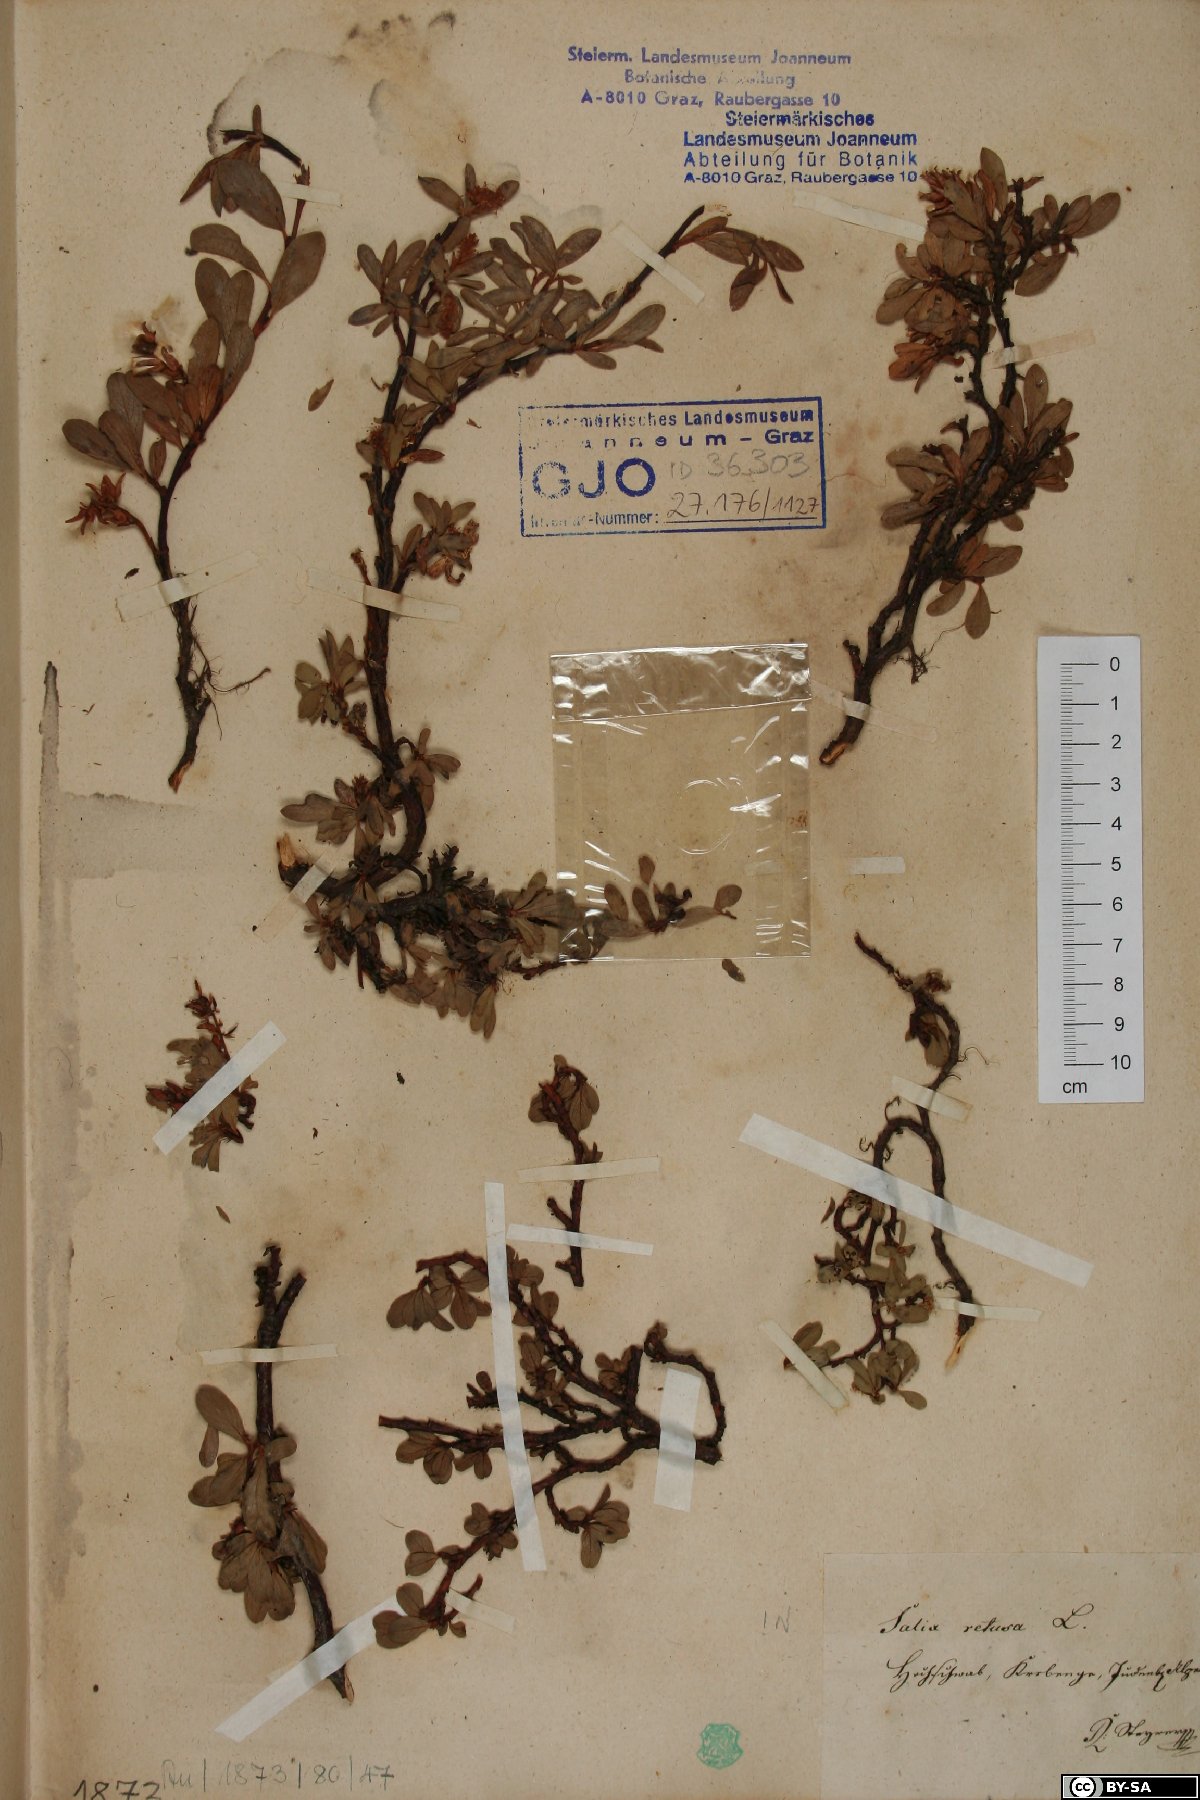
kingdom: Plantae
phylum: Tracheophyta
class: Magnoliopsida
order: Malpighiales
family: Salicaceae
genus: Salix
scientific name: Salix retusa
